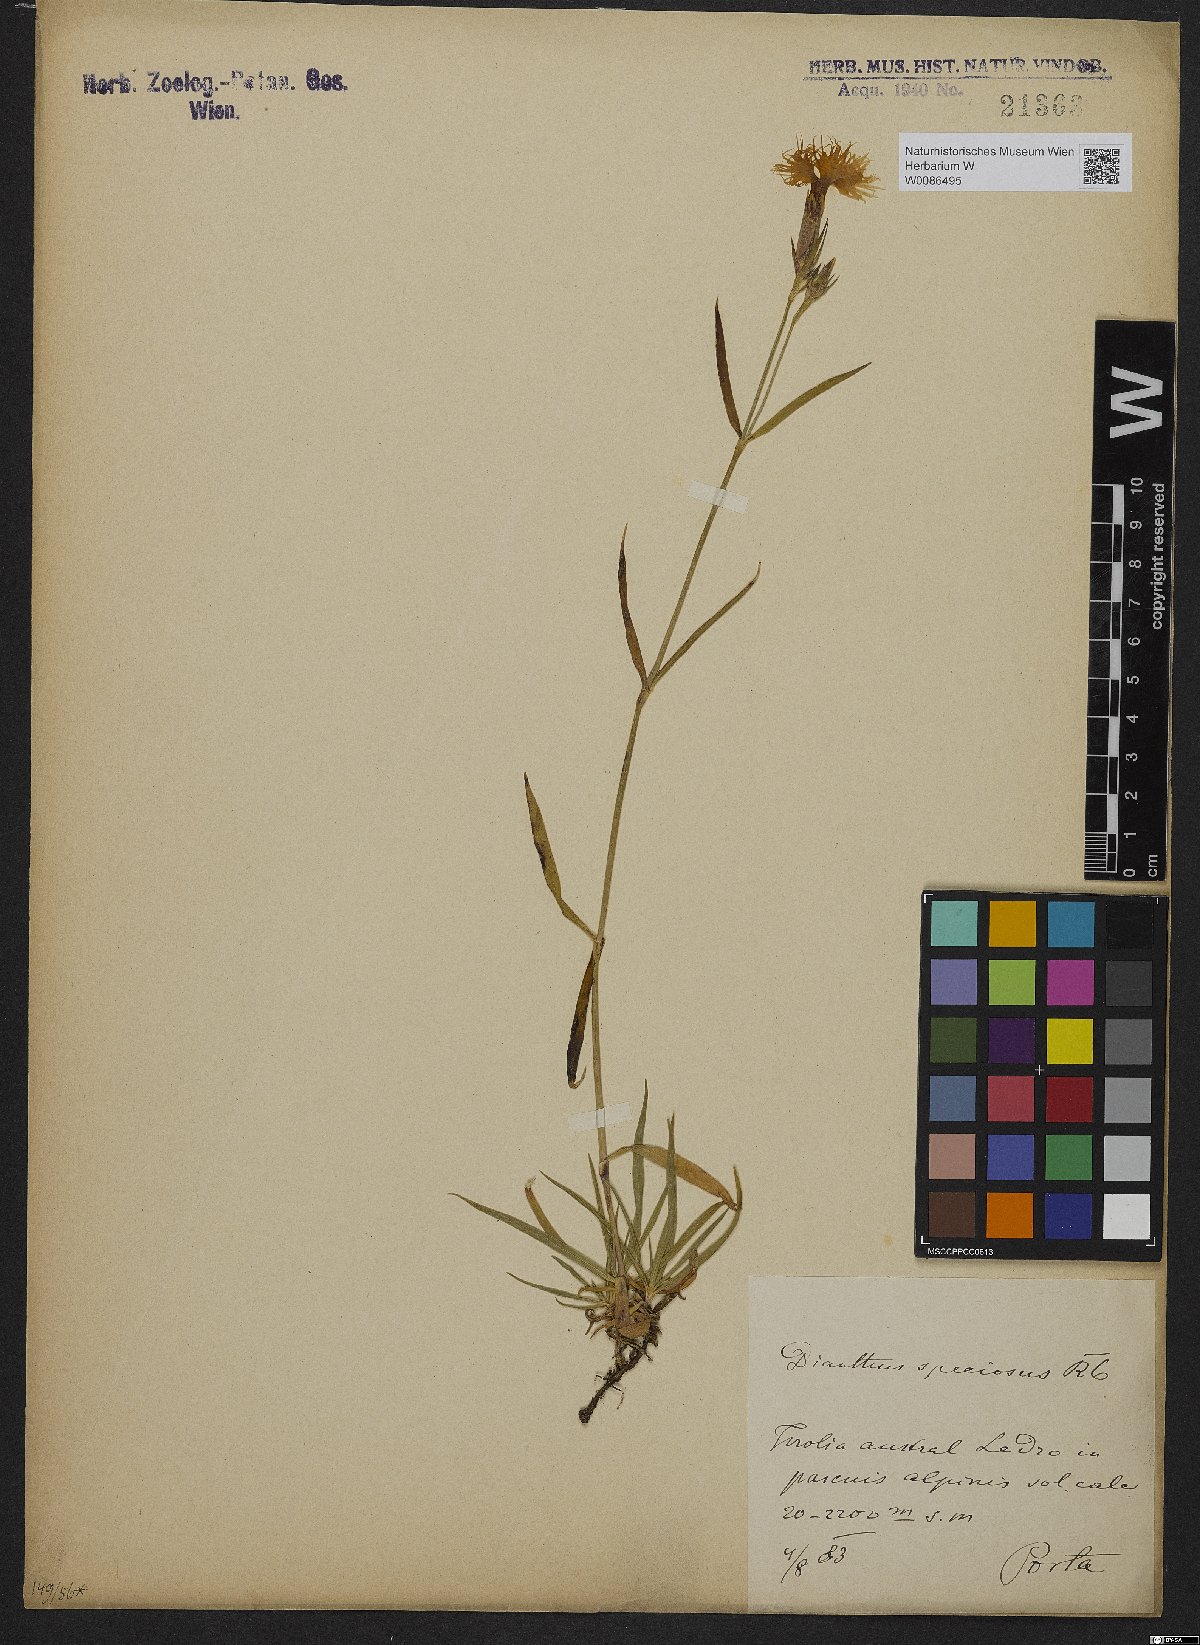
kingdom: Plantae
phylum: Tracheophyta
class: Magnoliopsida
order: Caryophyllales
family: Caryophyllaceae
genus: Dianthus
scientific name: Dianthus superbus
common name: Fringed pink
